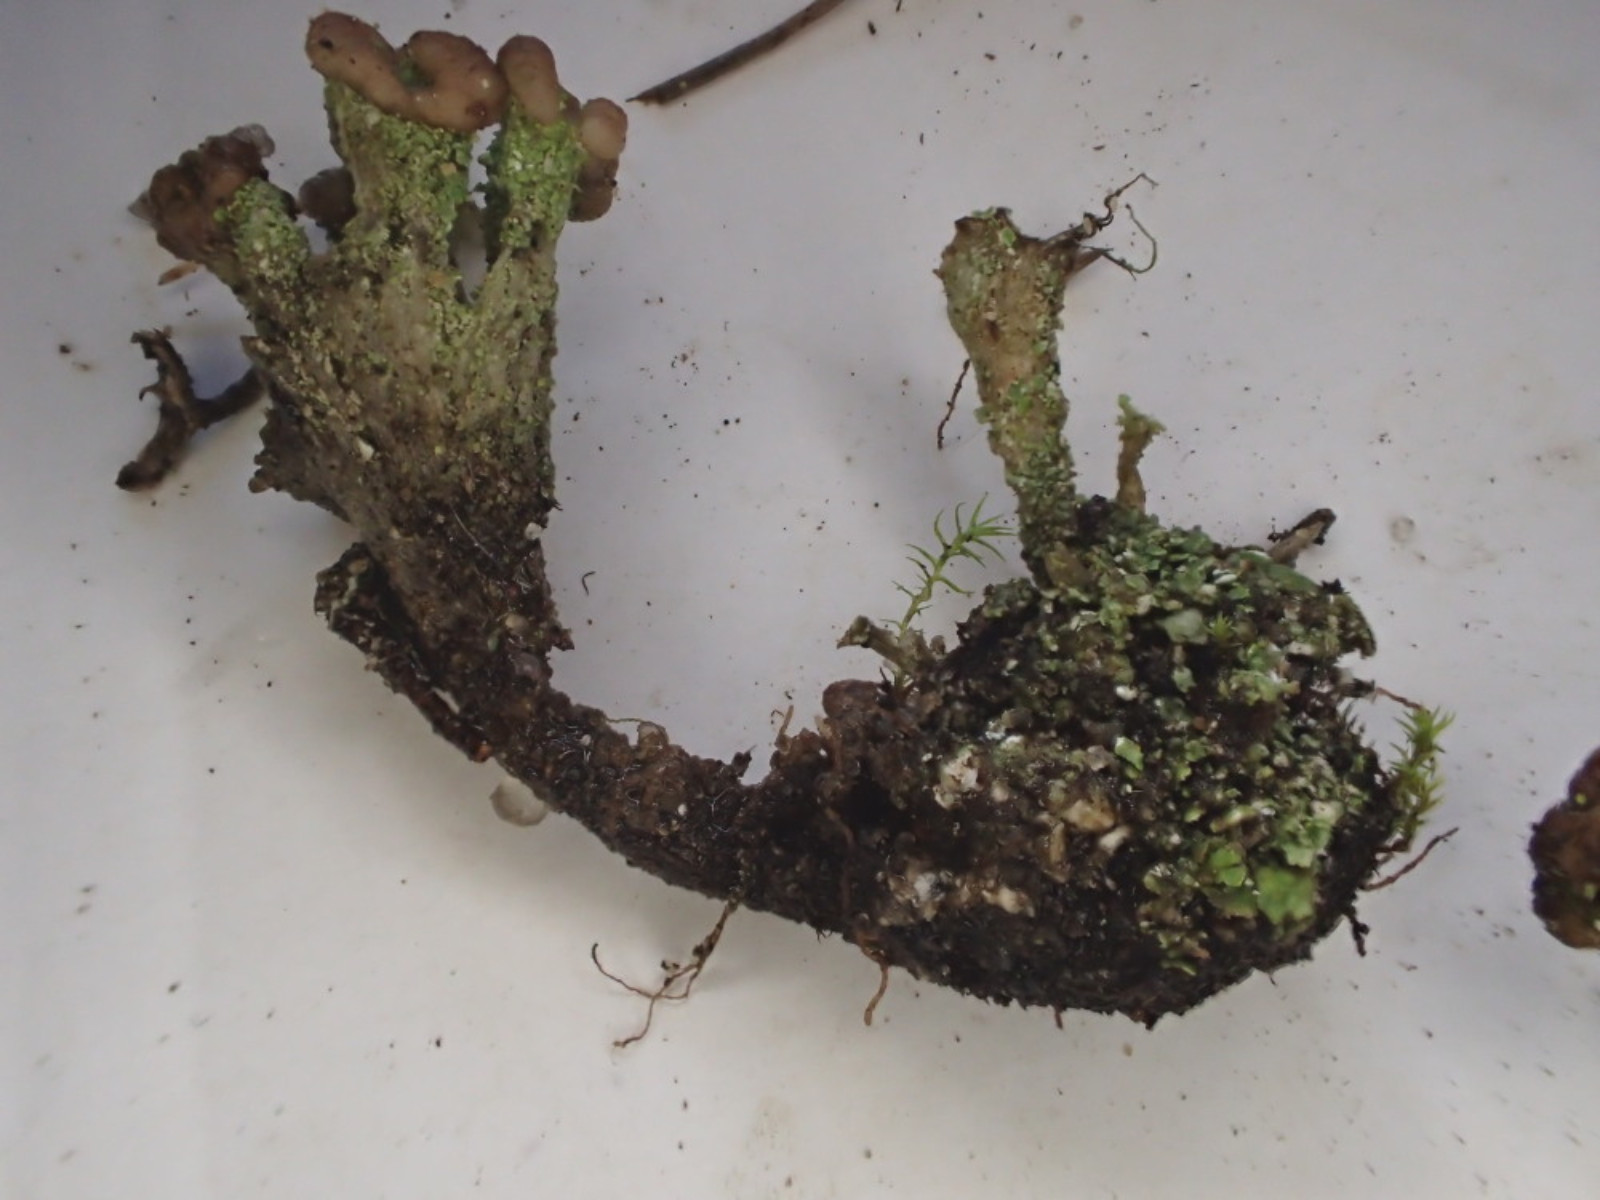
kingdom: Fungi
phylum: Ascomycota
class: Lecanoromycetes
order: Lecanorales
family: Cladoniaceae
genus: Cladonia
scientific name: Cladonia
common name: brungrøn bægerlav
